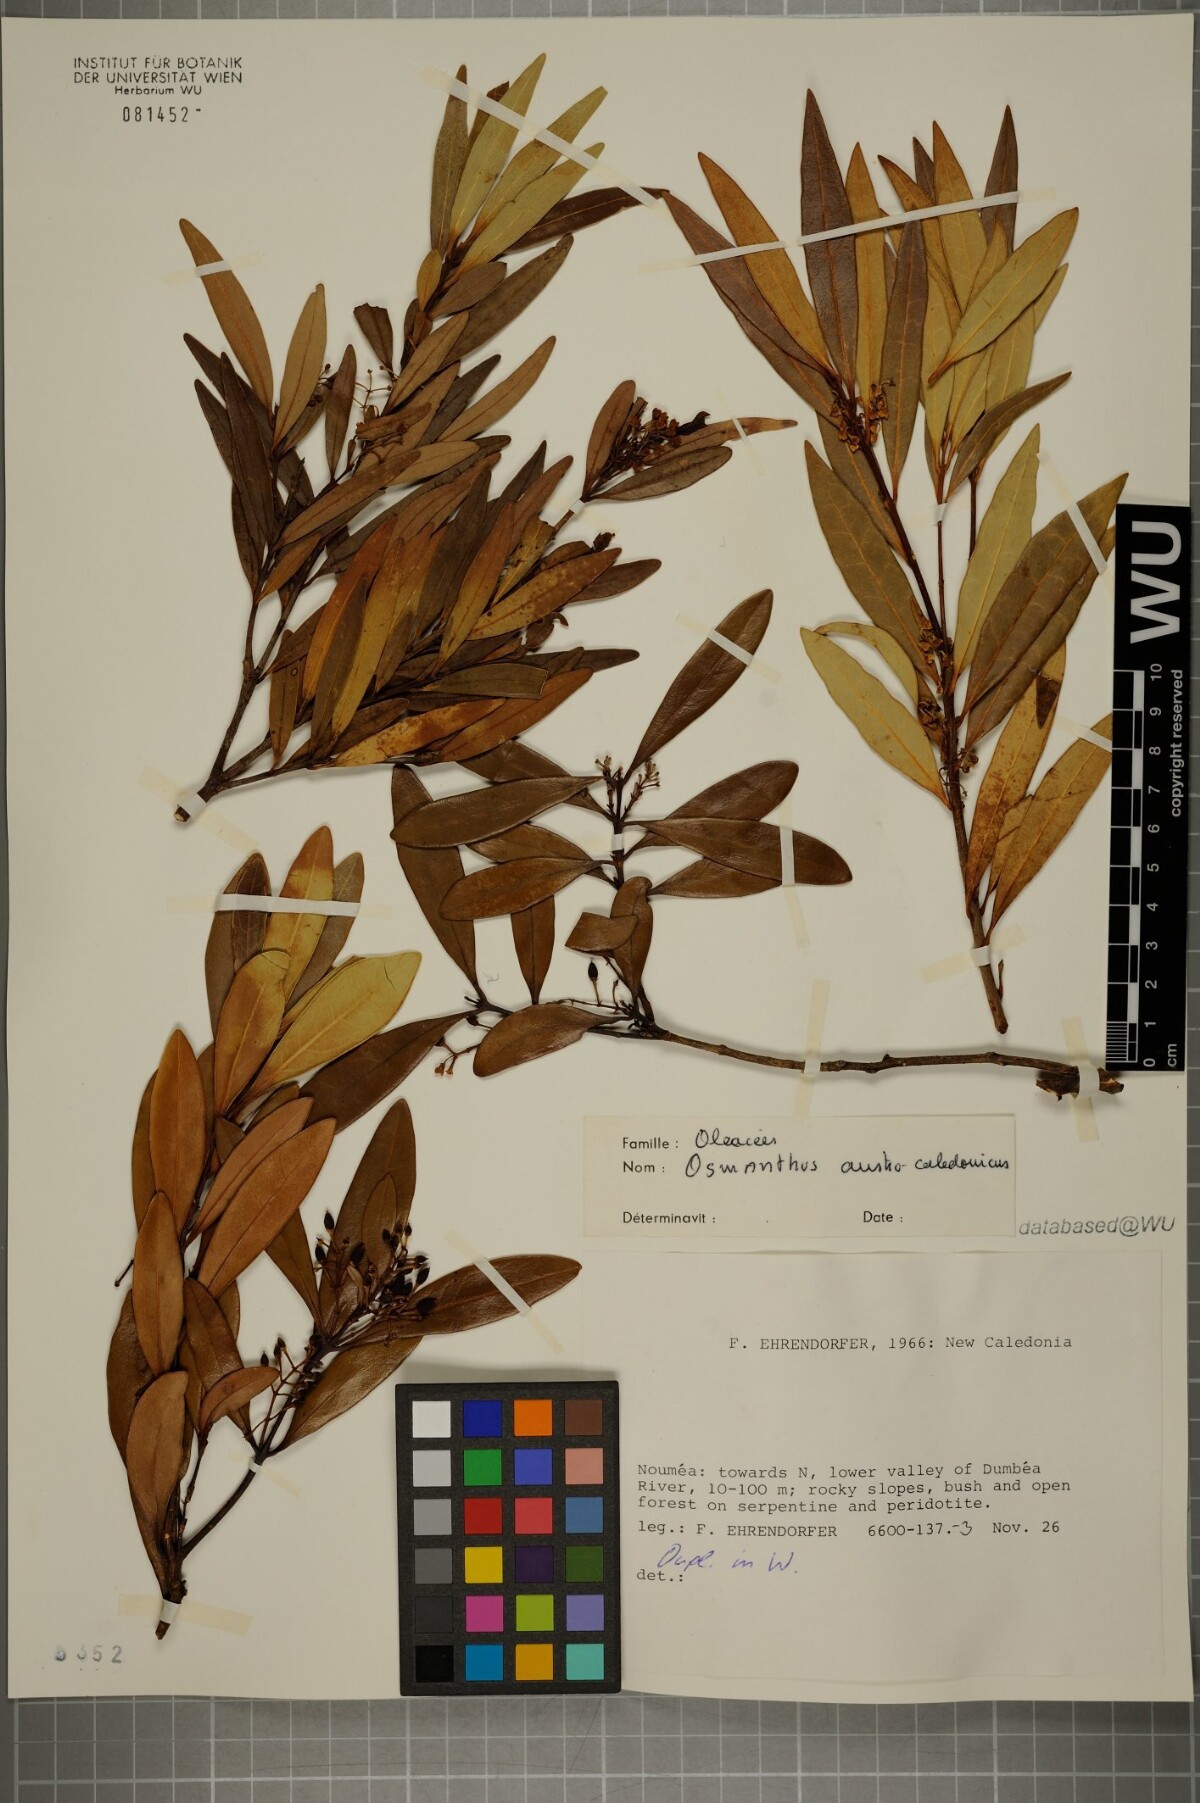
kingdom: Plantae
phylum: Tracheophyta
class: Magnoliopsida
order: Lamiales
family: Oleaceae
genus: Osmanthus
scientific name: Osmanthus austrocaledonicus
